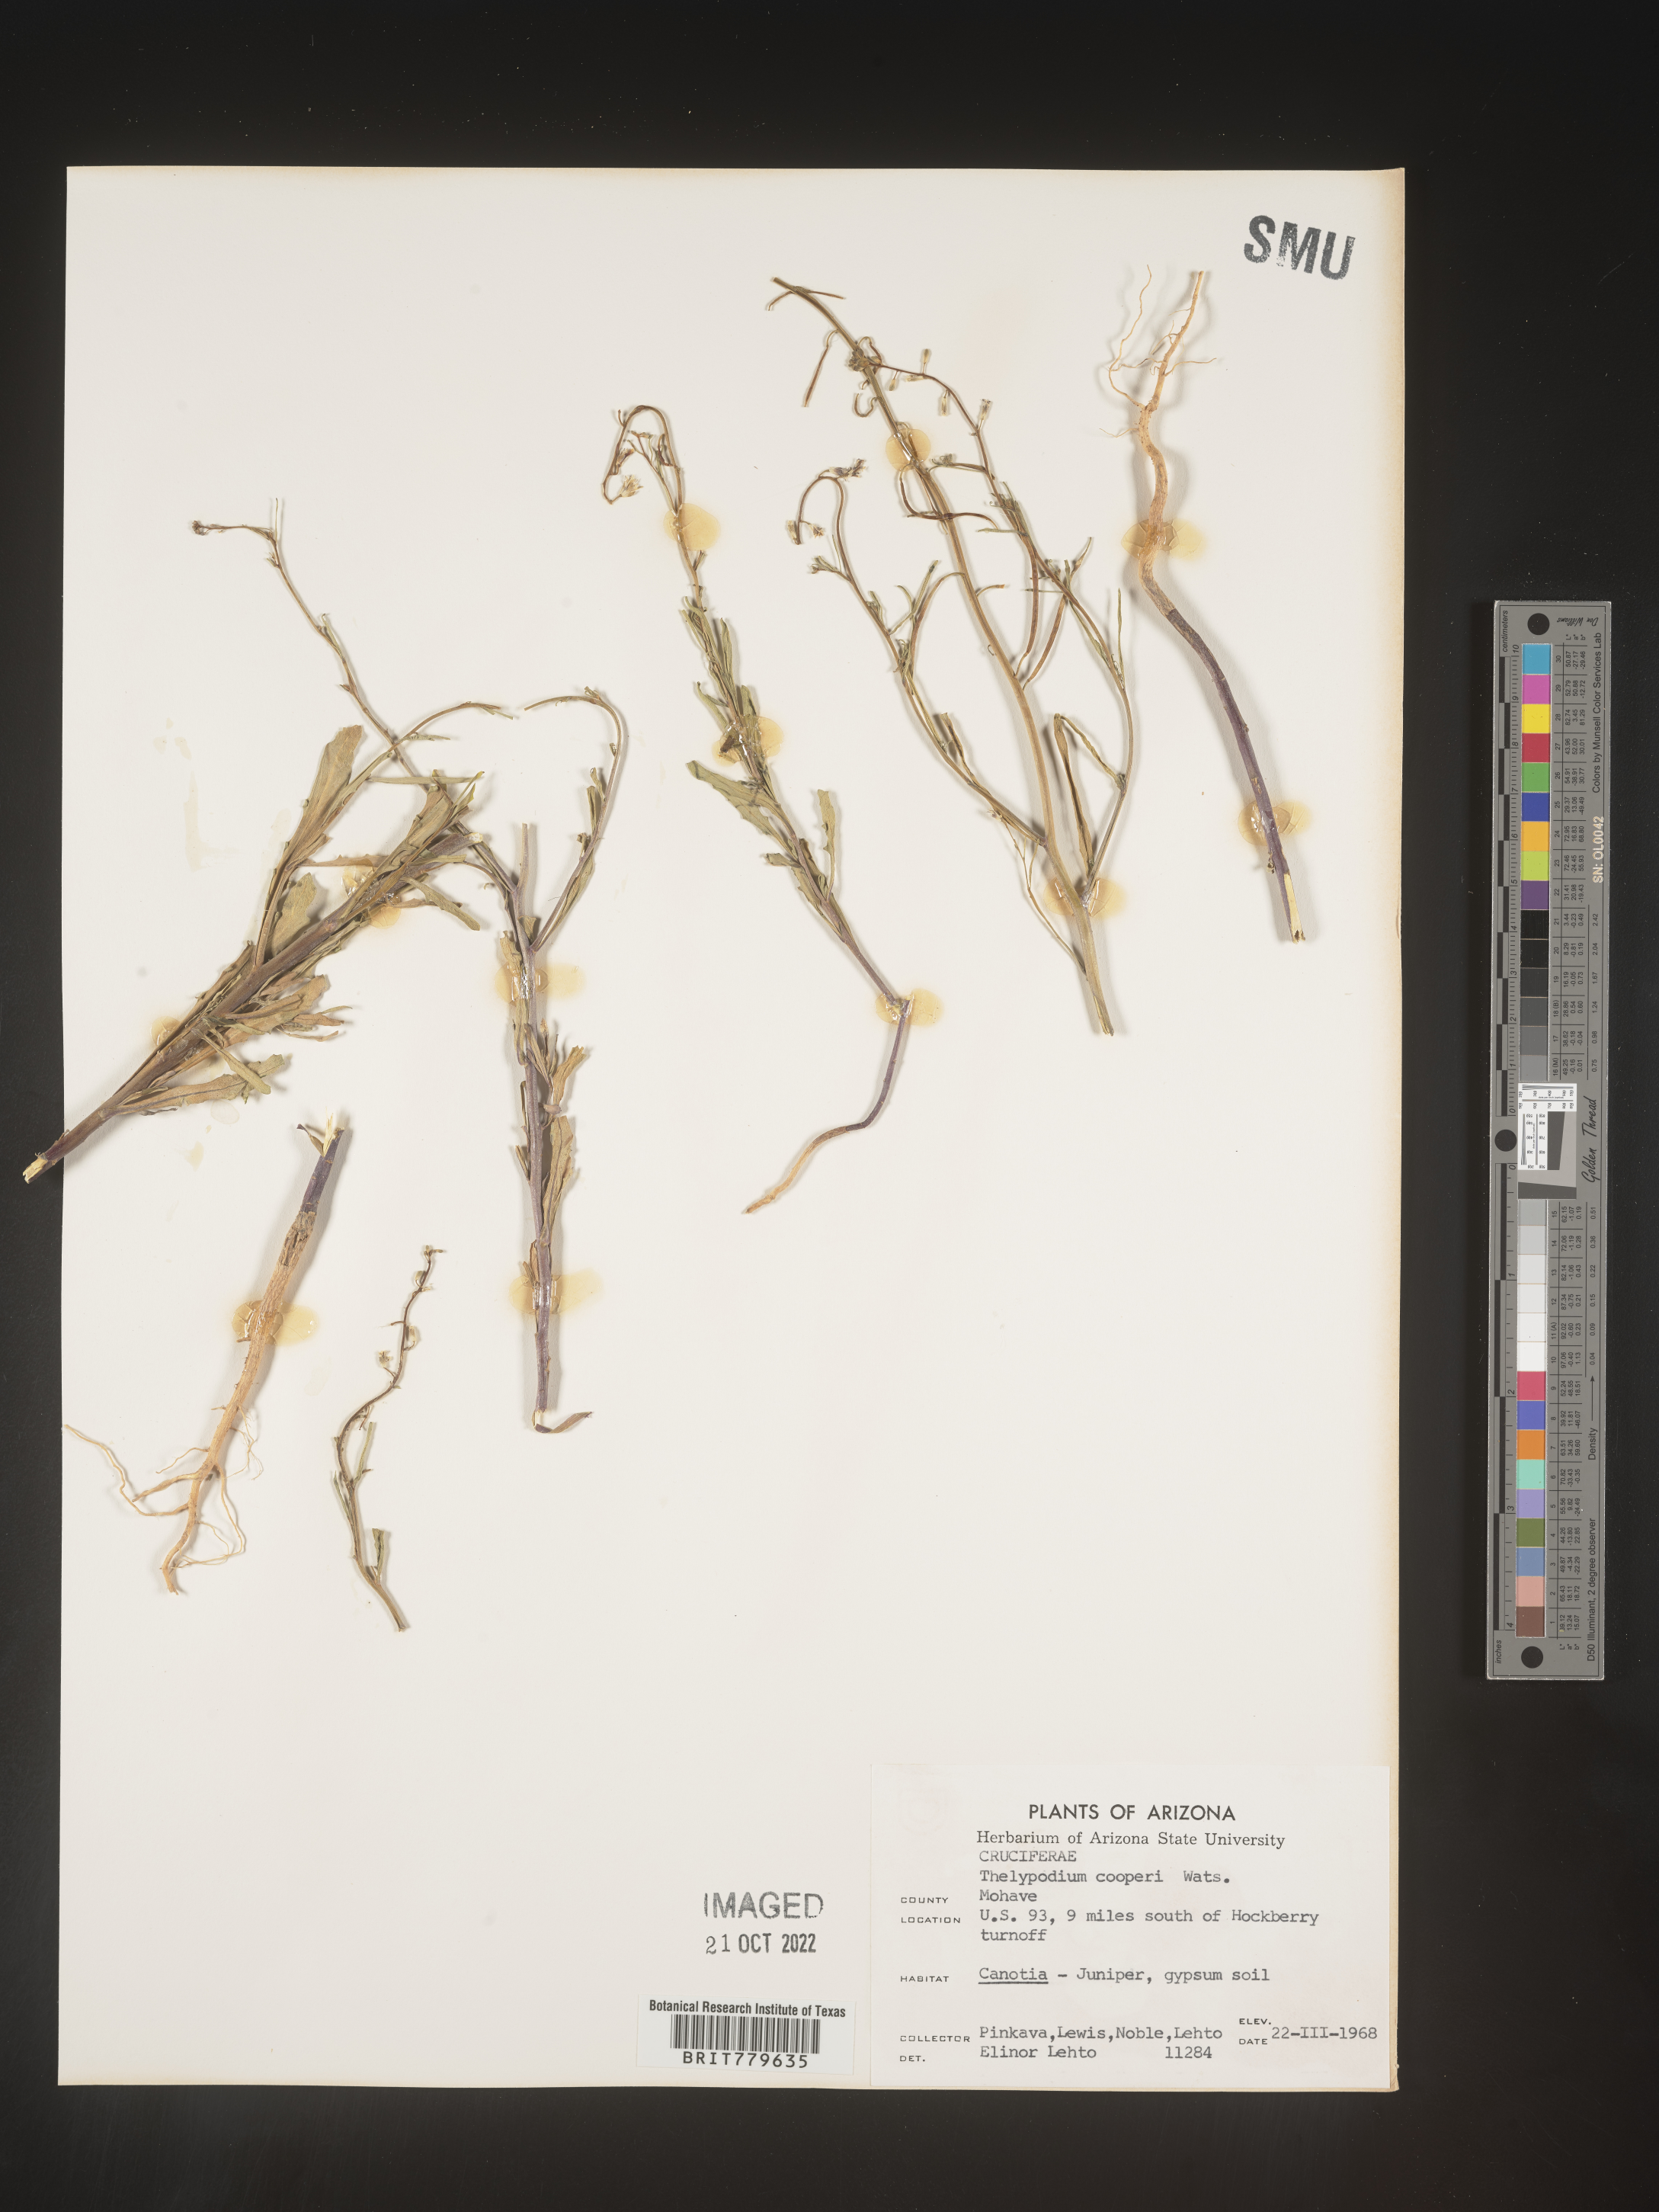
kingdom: Plantae
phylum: Tracheophyta
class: Magnoliopsida
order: Brassicales
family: Brassicaceae
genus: Thelypodium
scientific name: Thelypodium
